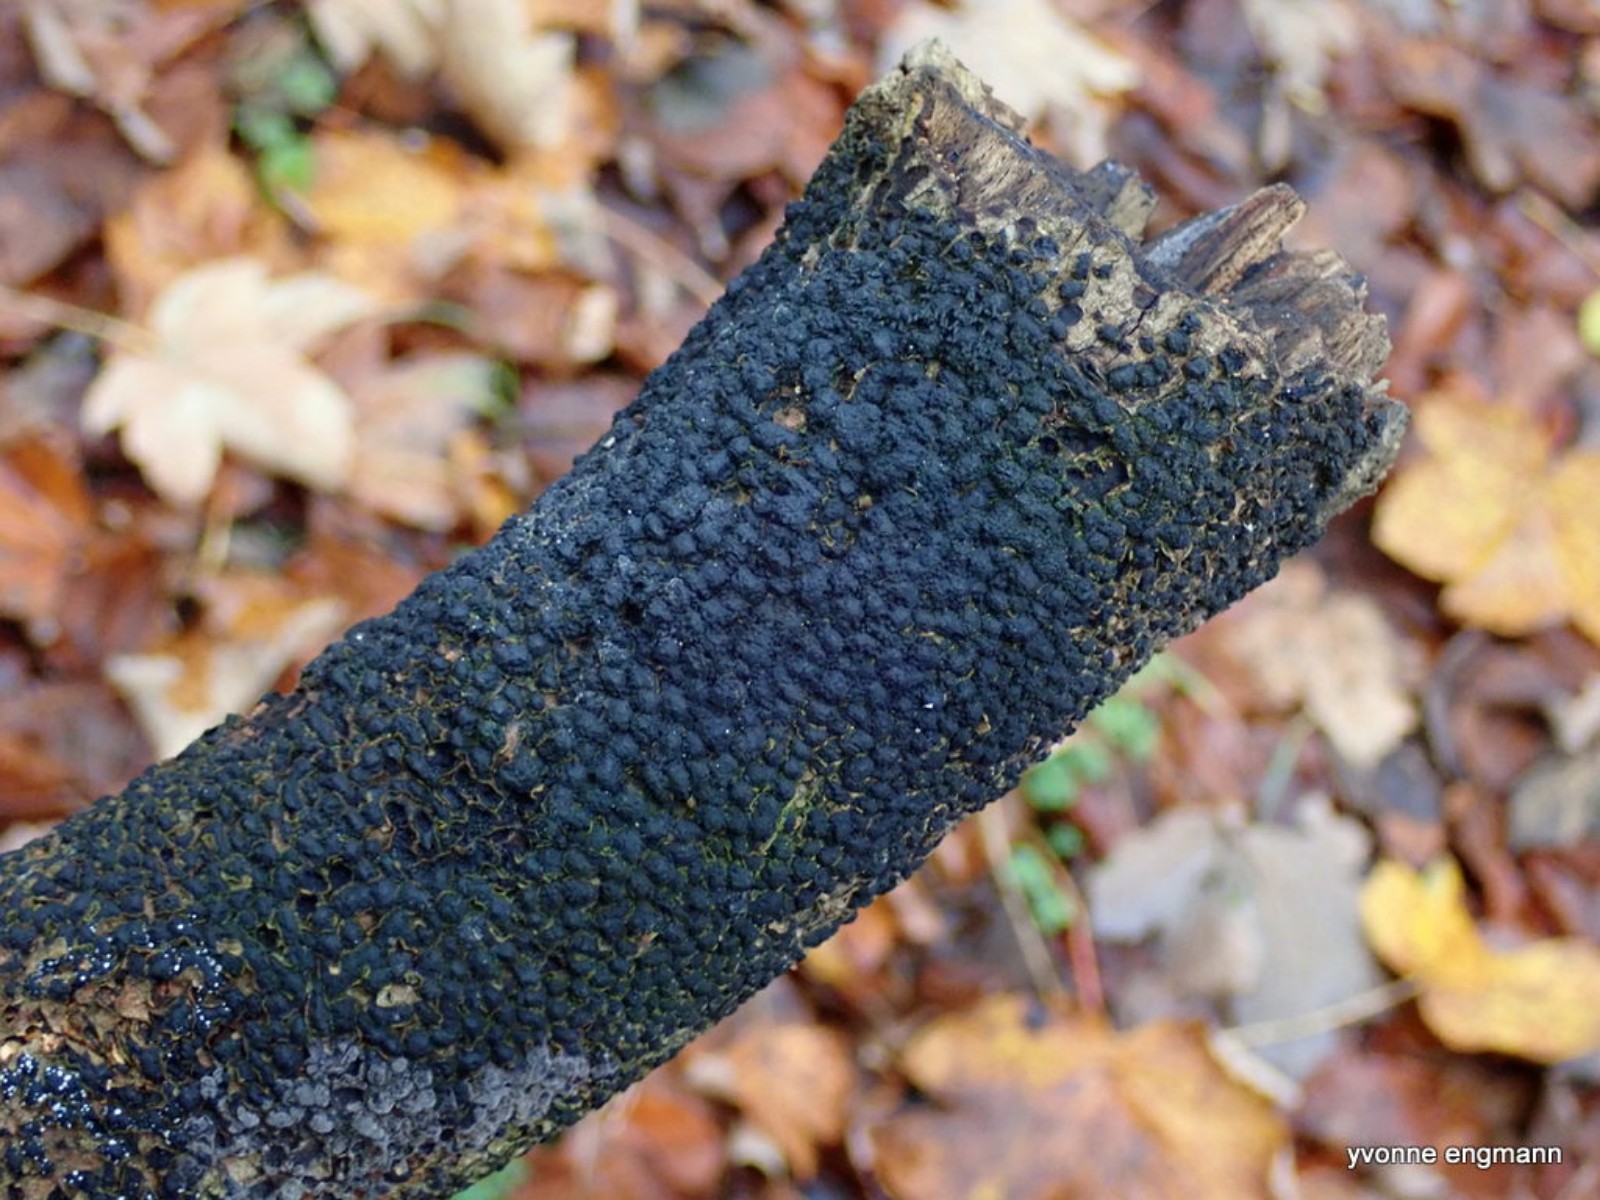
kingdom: Fungi
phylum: Ascomycota
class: Sordariomycetes
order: Xylariales
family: Melogrammataceae
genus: Melogramma
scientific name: Melogramma spiniferum
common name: bøgefod-kulhals
